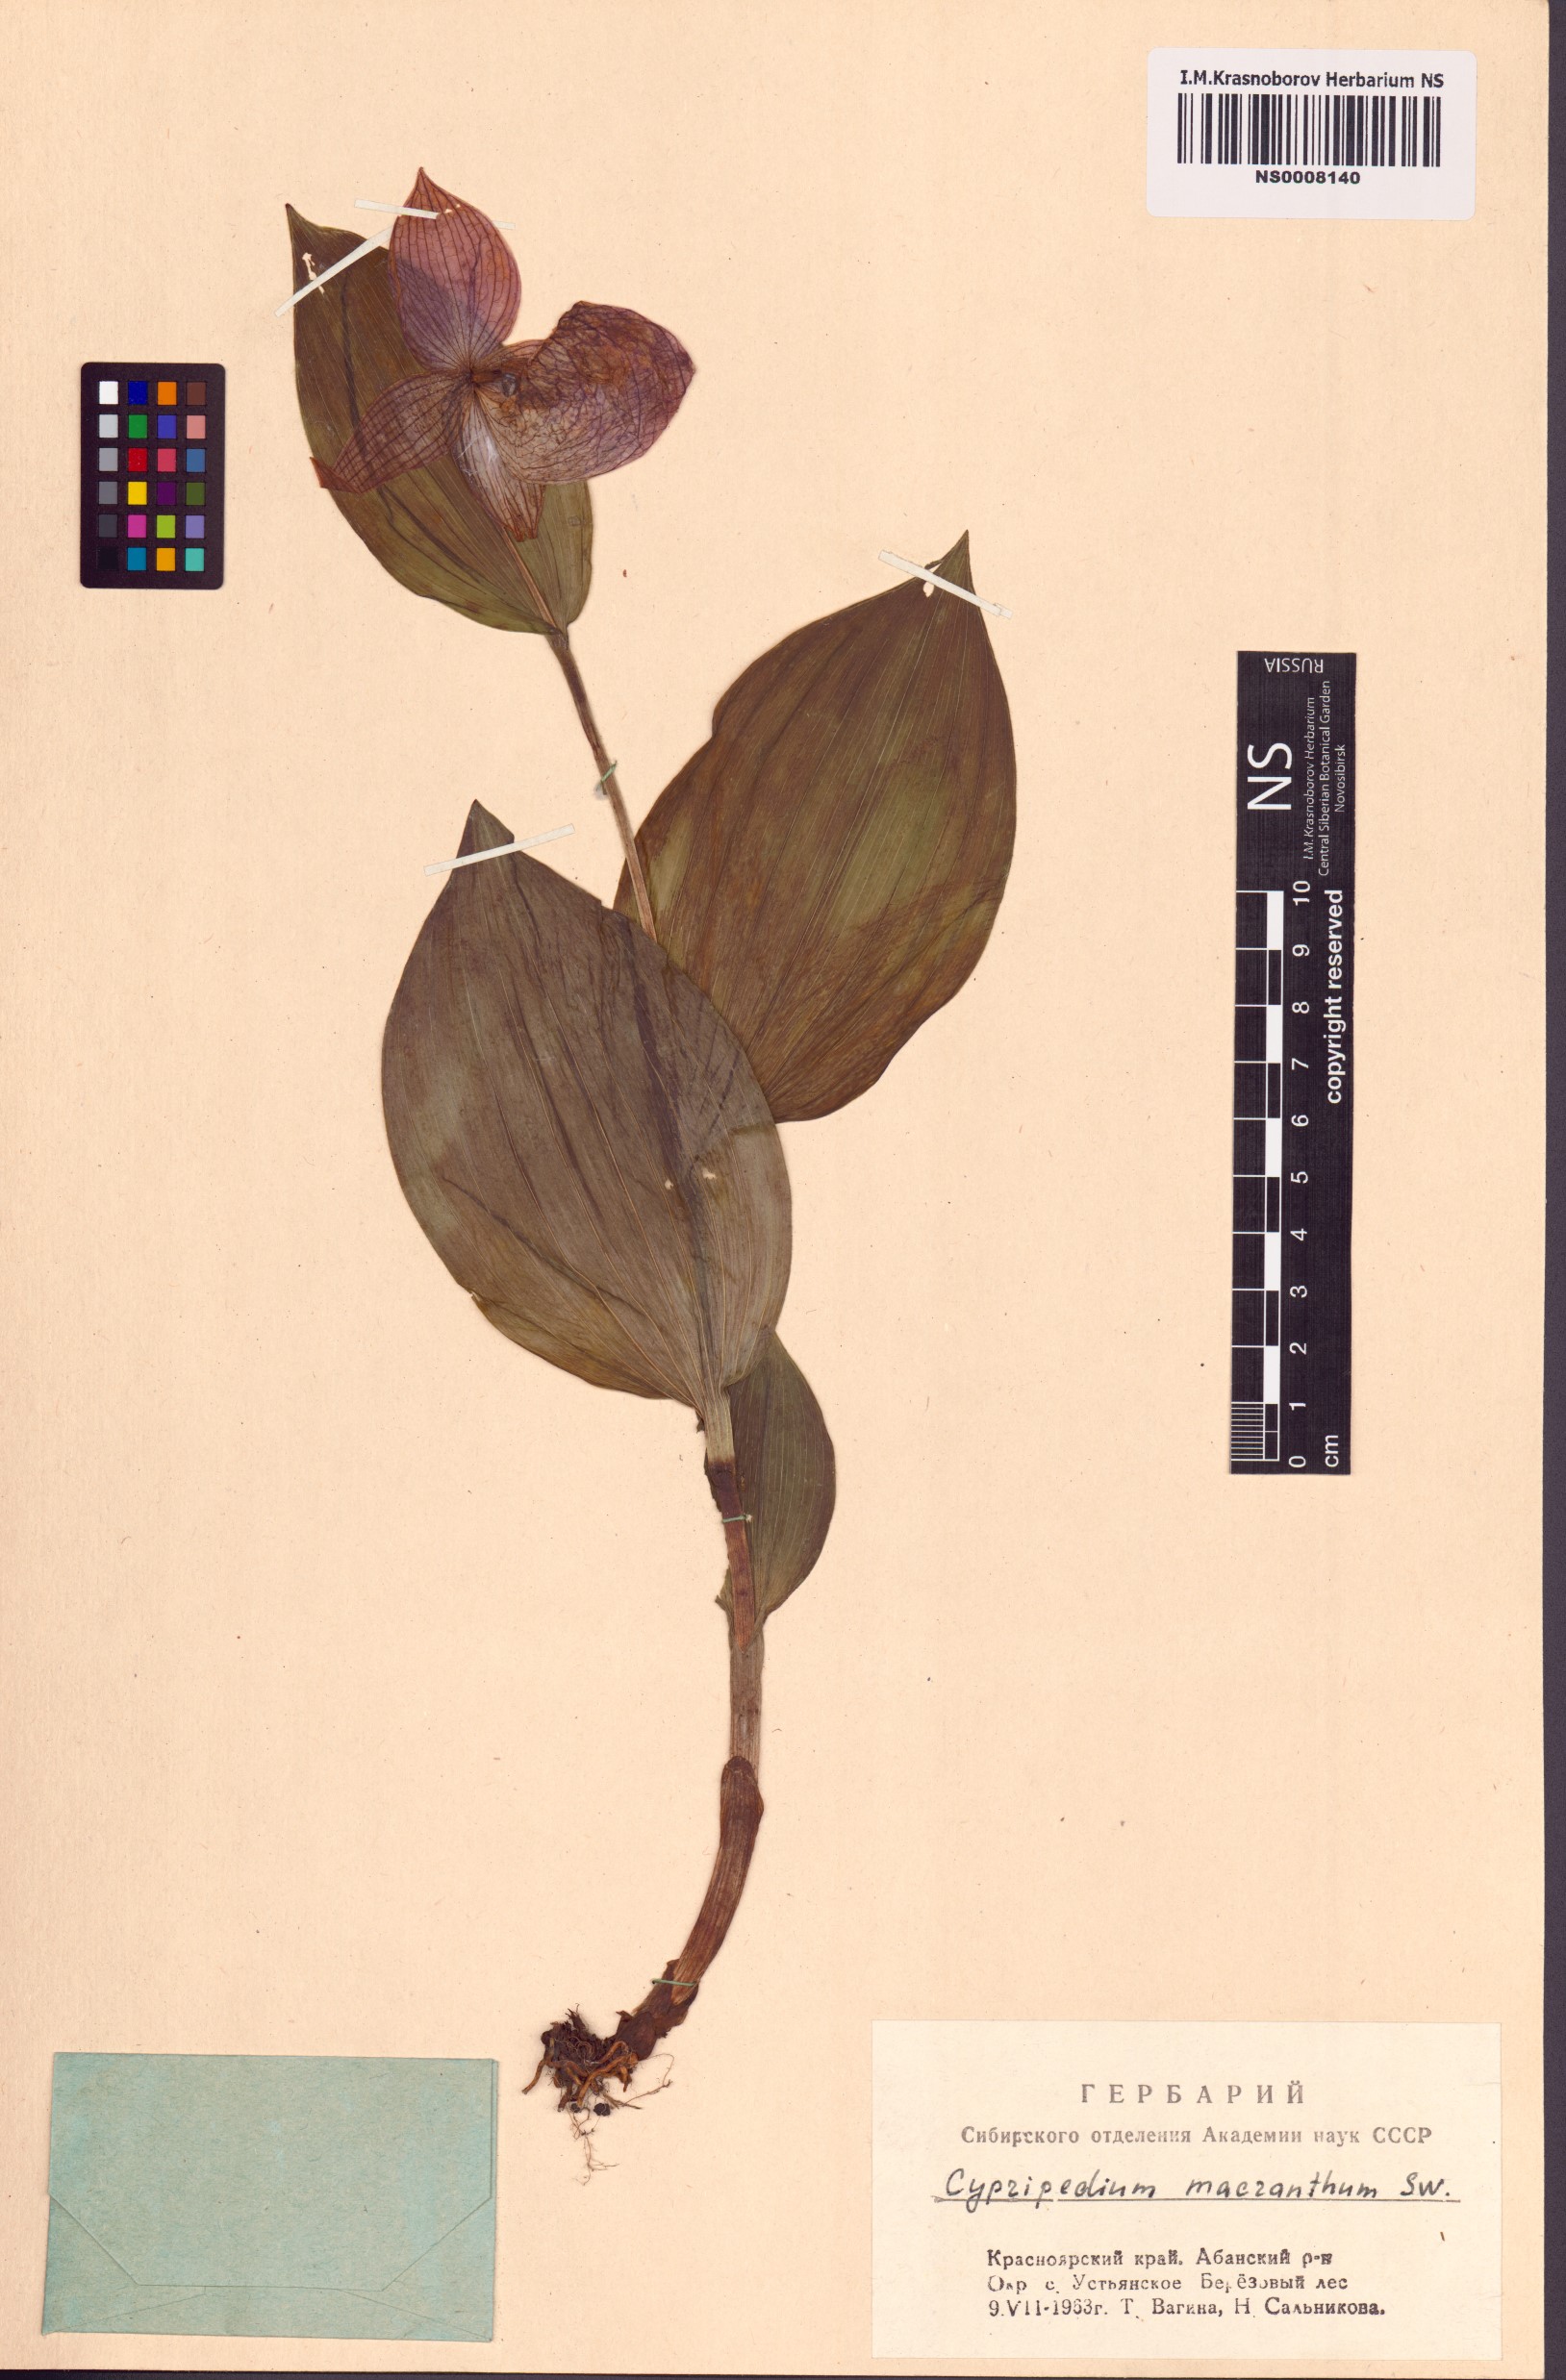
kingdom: Plantae
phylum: Tracheophyta
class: Liliopsida
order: Asparagales
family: Orchidaceae
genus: Cypripedium
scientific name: Cypripedium macranthos
